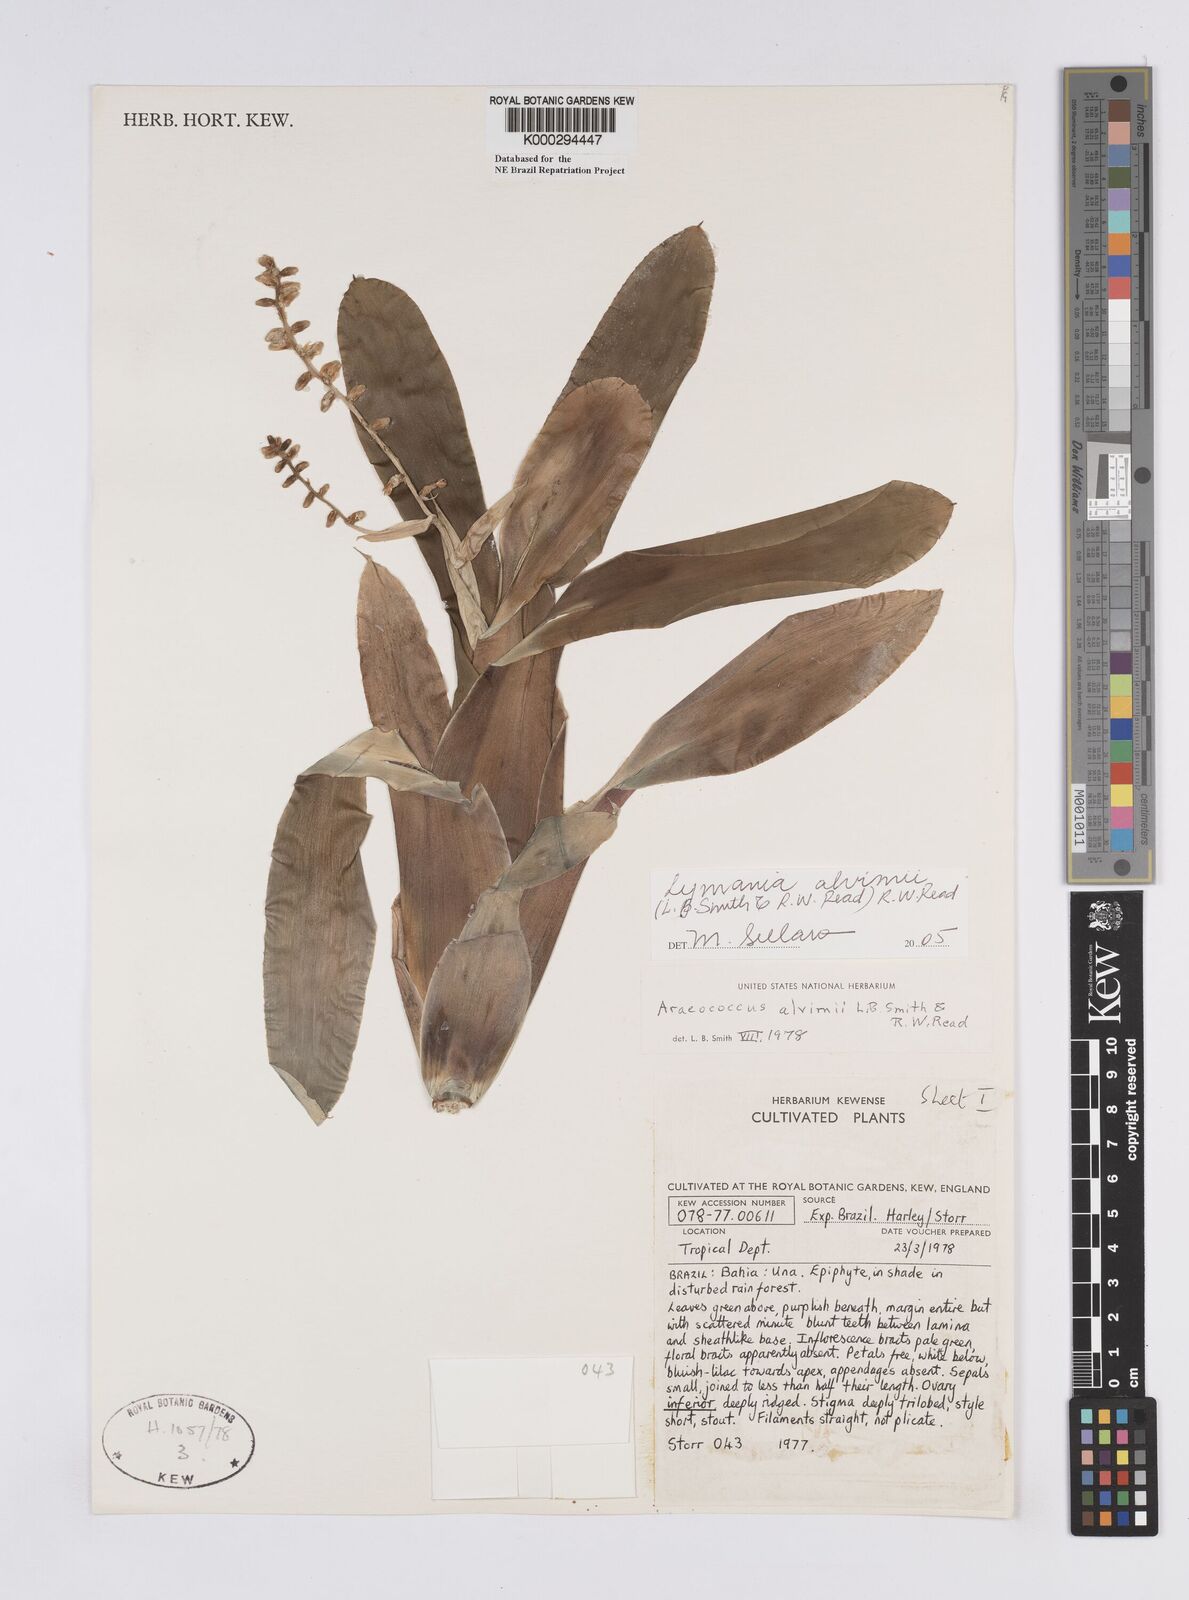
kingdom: Plantae
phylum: Tracheophyta
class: Liliopsida
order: Poales
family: Bromeliaceae
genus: Lymania
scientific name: Lymania alvimii
